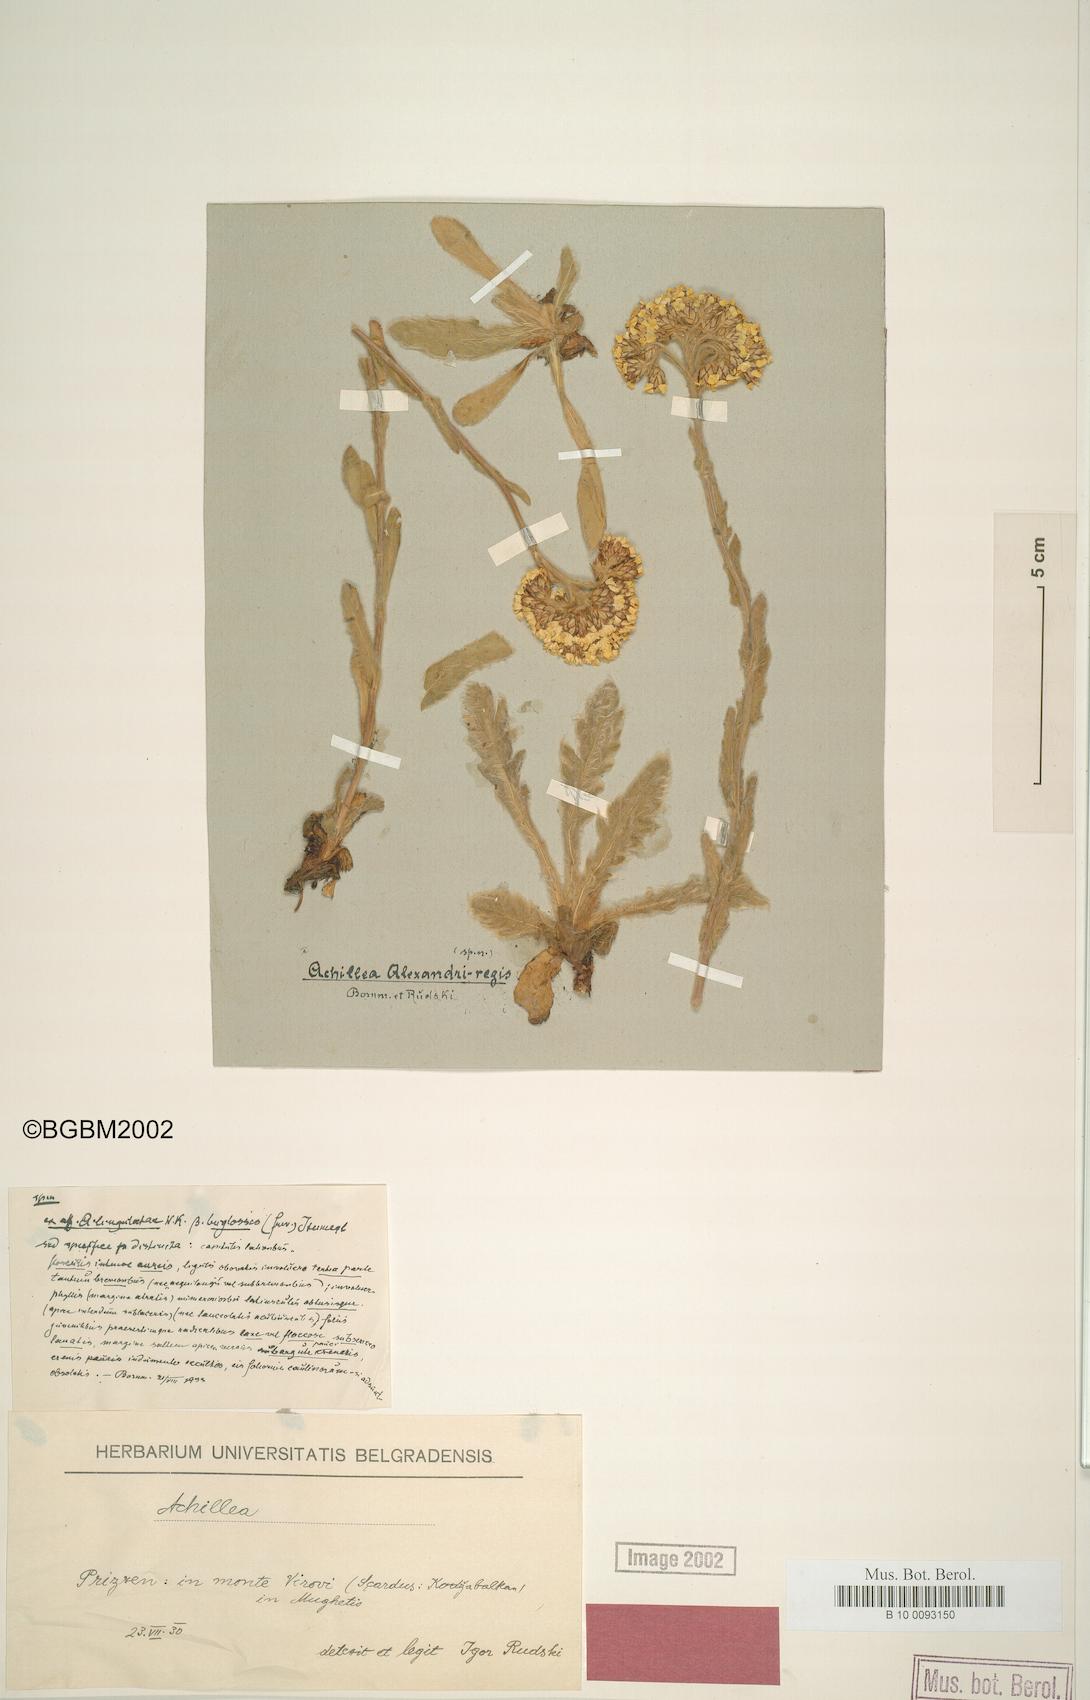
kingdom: Plantae
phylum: Tracheophyta
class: Magnoliopsida
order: Asterales
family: Asteraceae
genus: Achillea
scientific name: Achillea alexandri-regis
